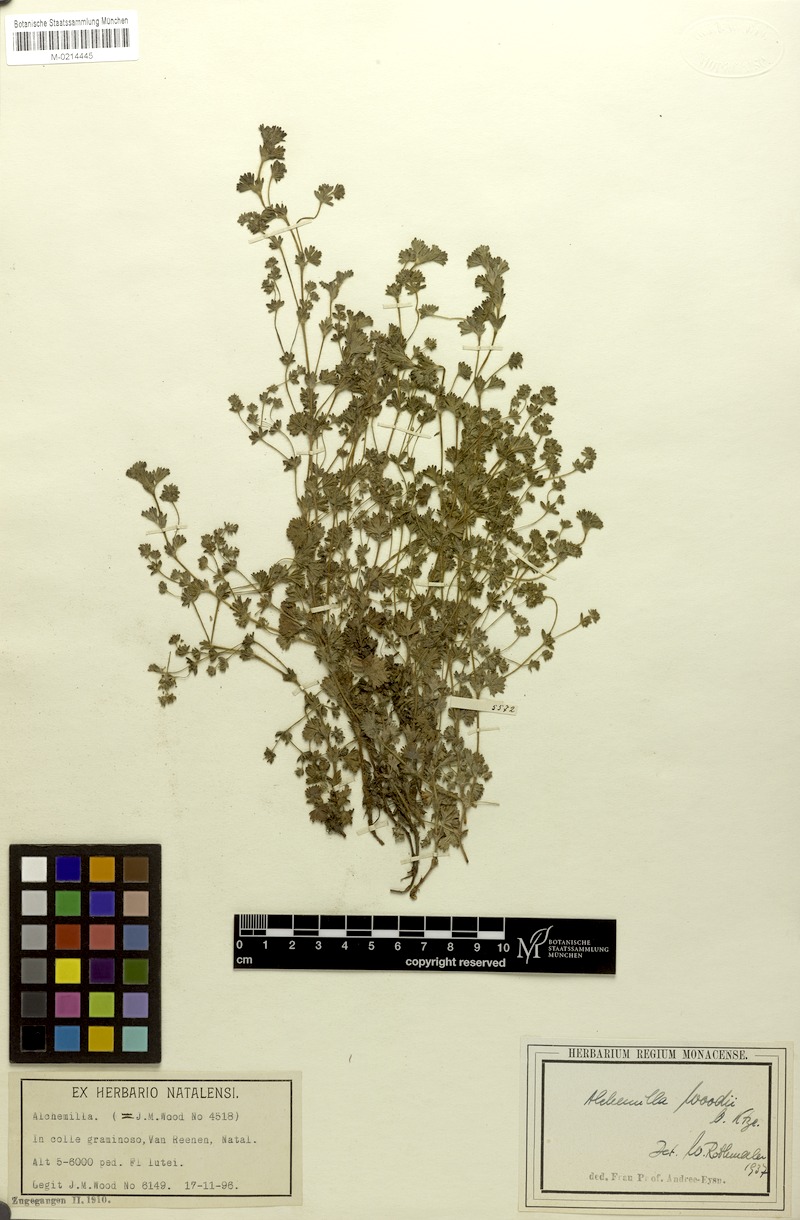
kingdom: Plantae
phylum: Tracheophyta
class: Magnoliopsida
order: Rosales
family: Rosaceae
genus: Alchemilla
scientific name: Alchemilla woodii
